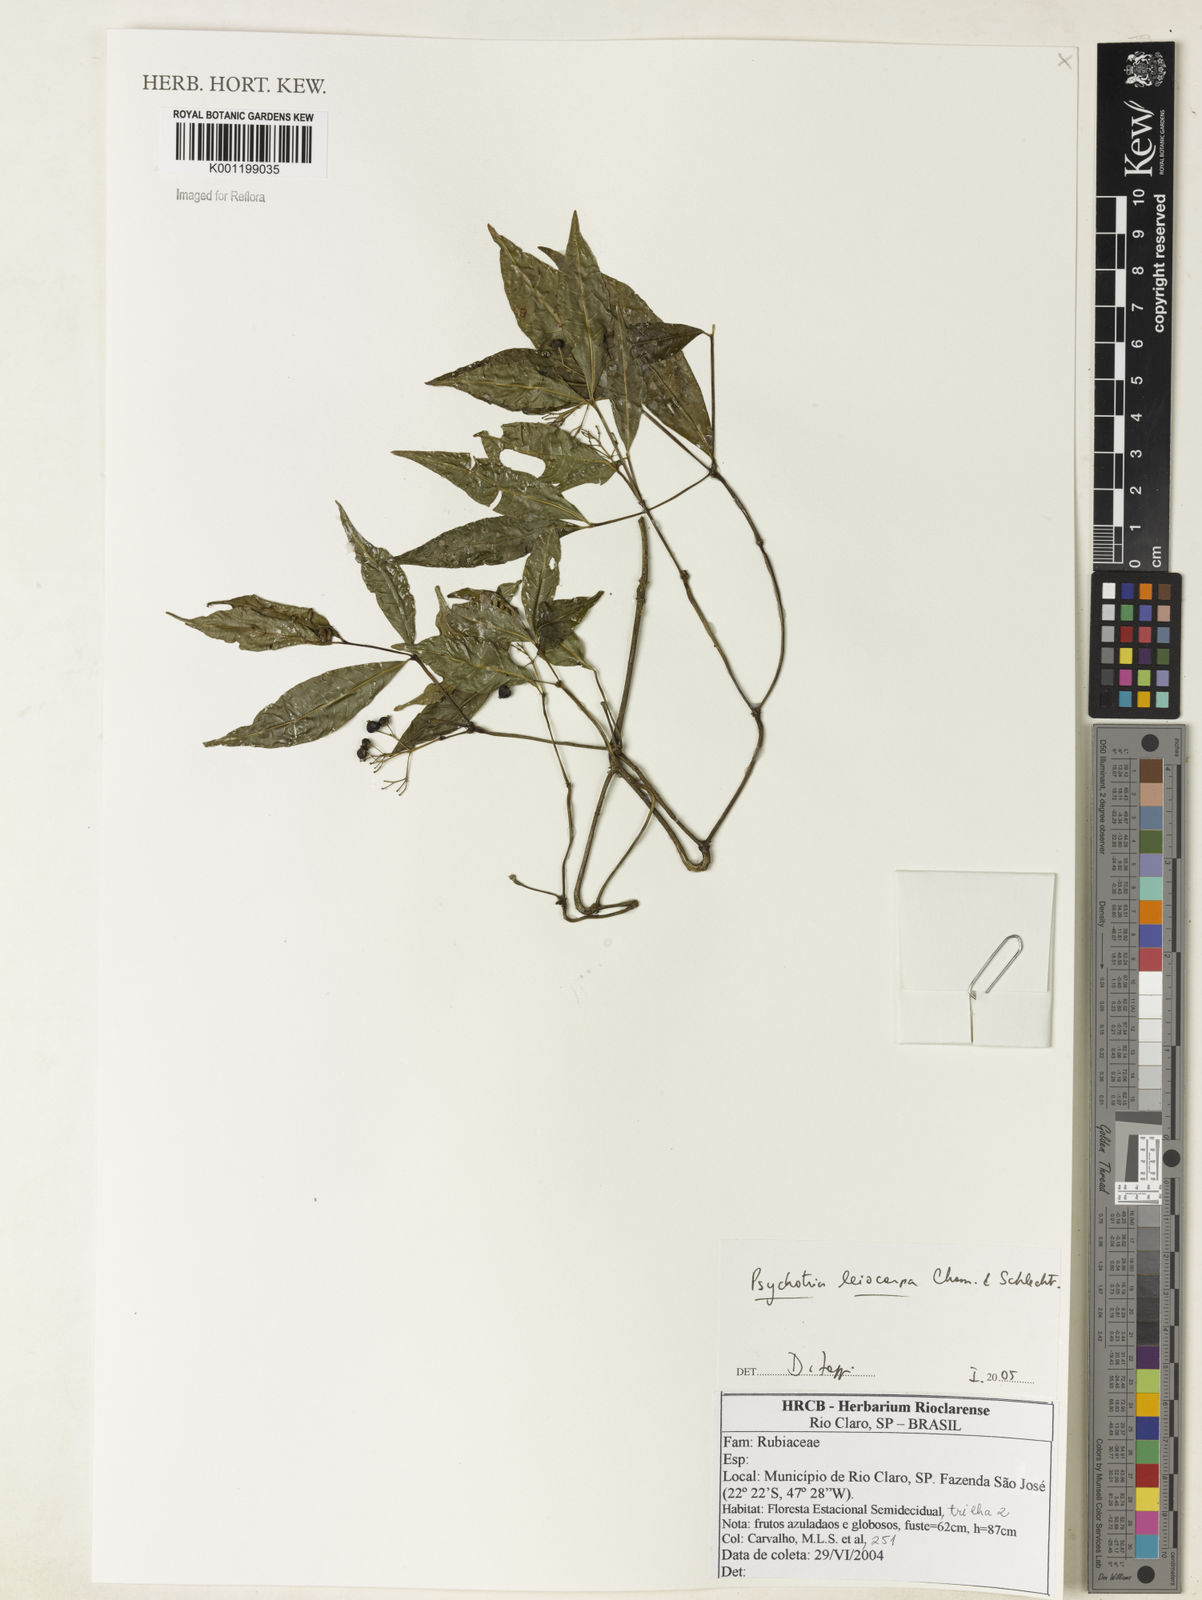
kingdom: Plantae
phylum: Tracheophyta
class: Magnoliopsida
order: Gentianales
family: Rubiaceae
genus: Psychotria
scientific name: Psychotria leiocarpa
